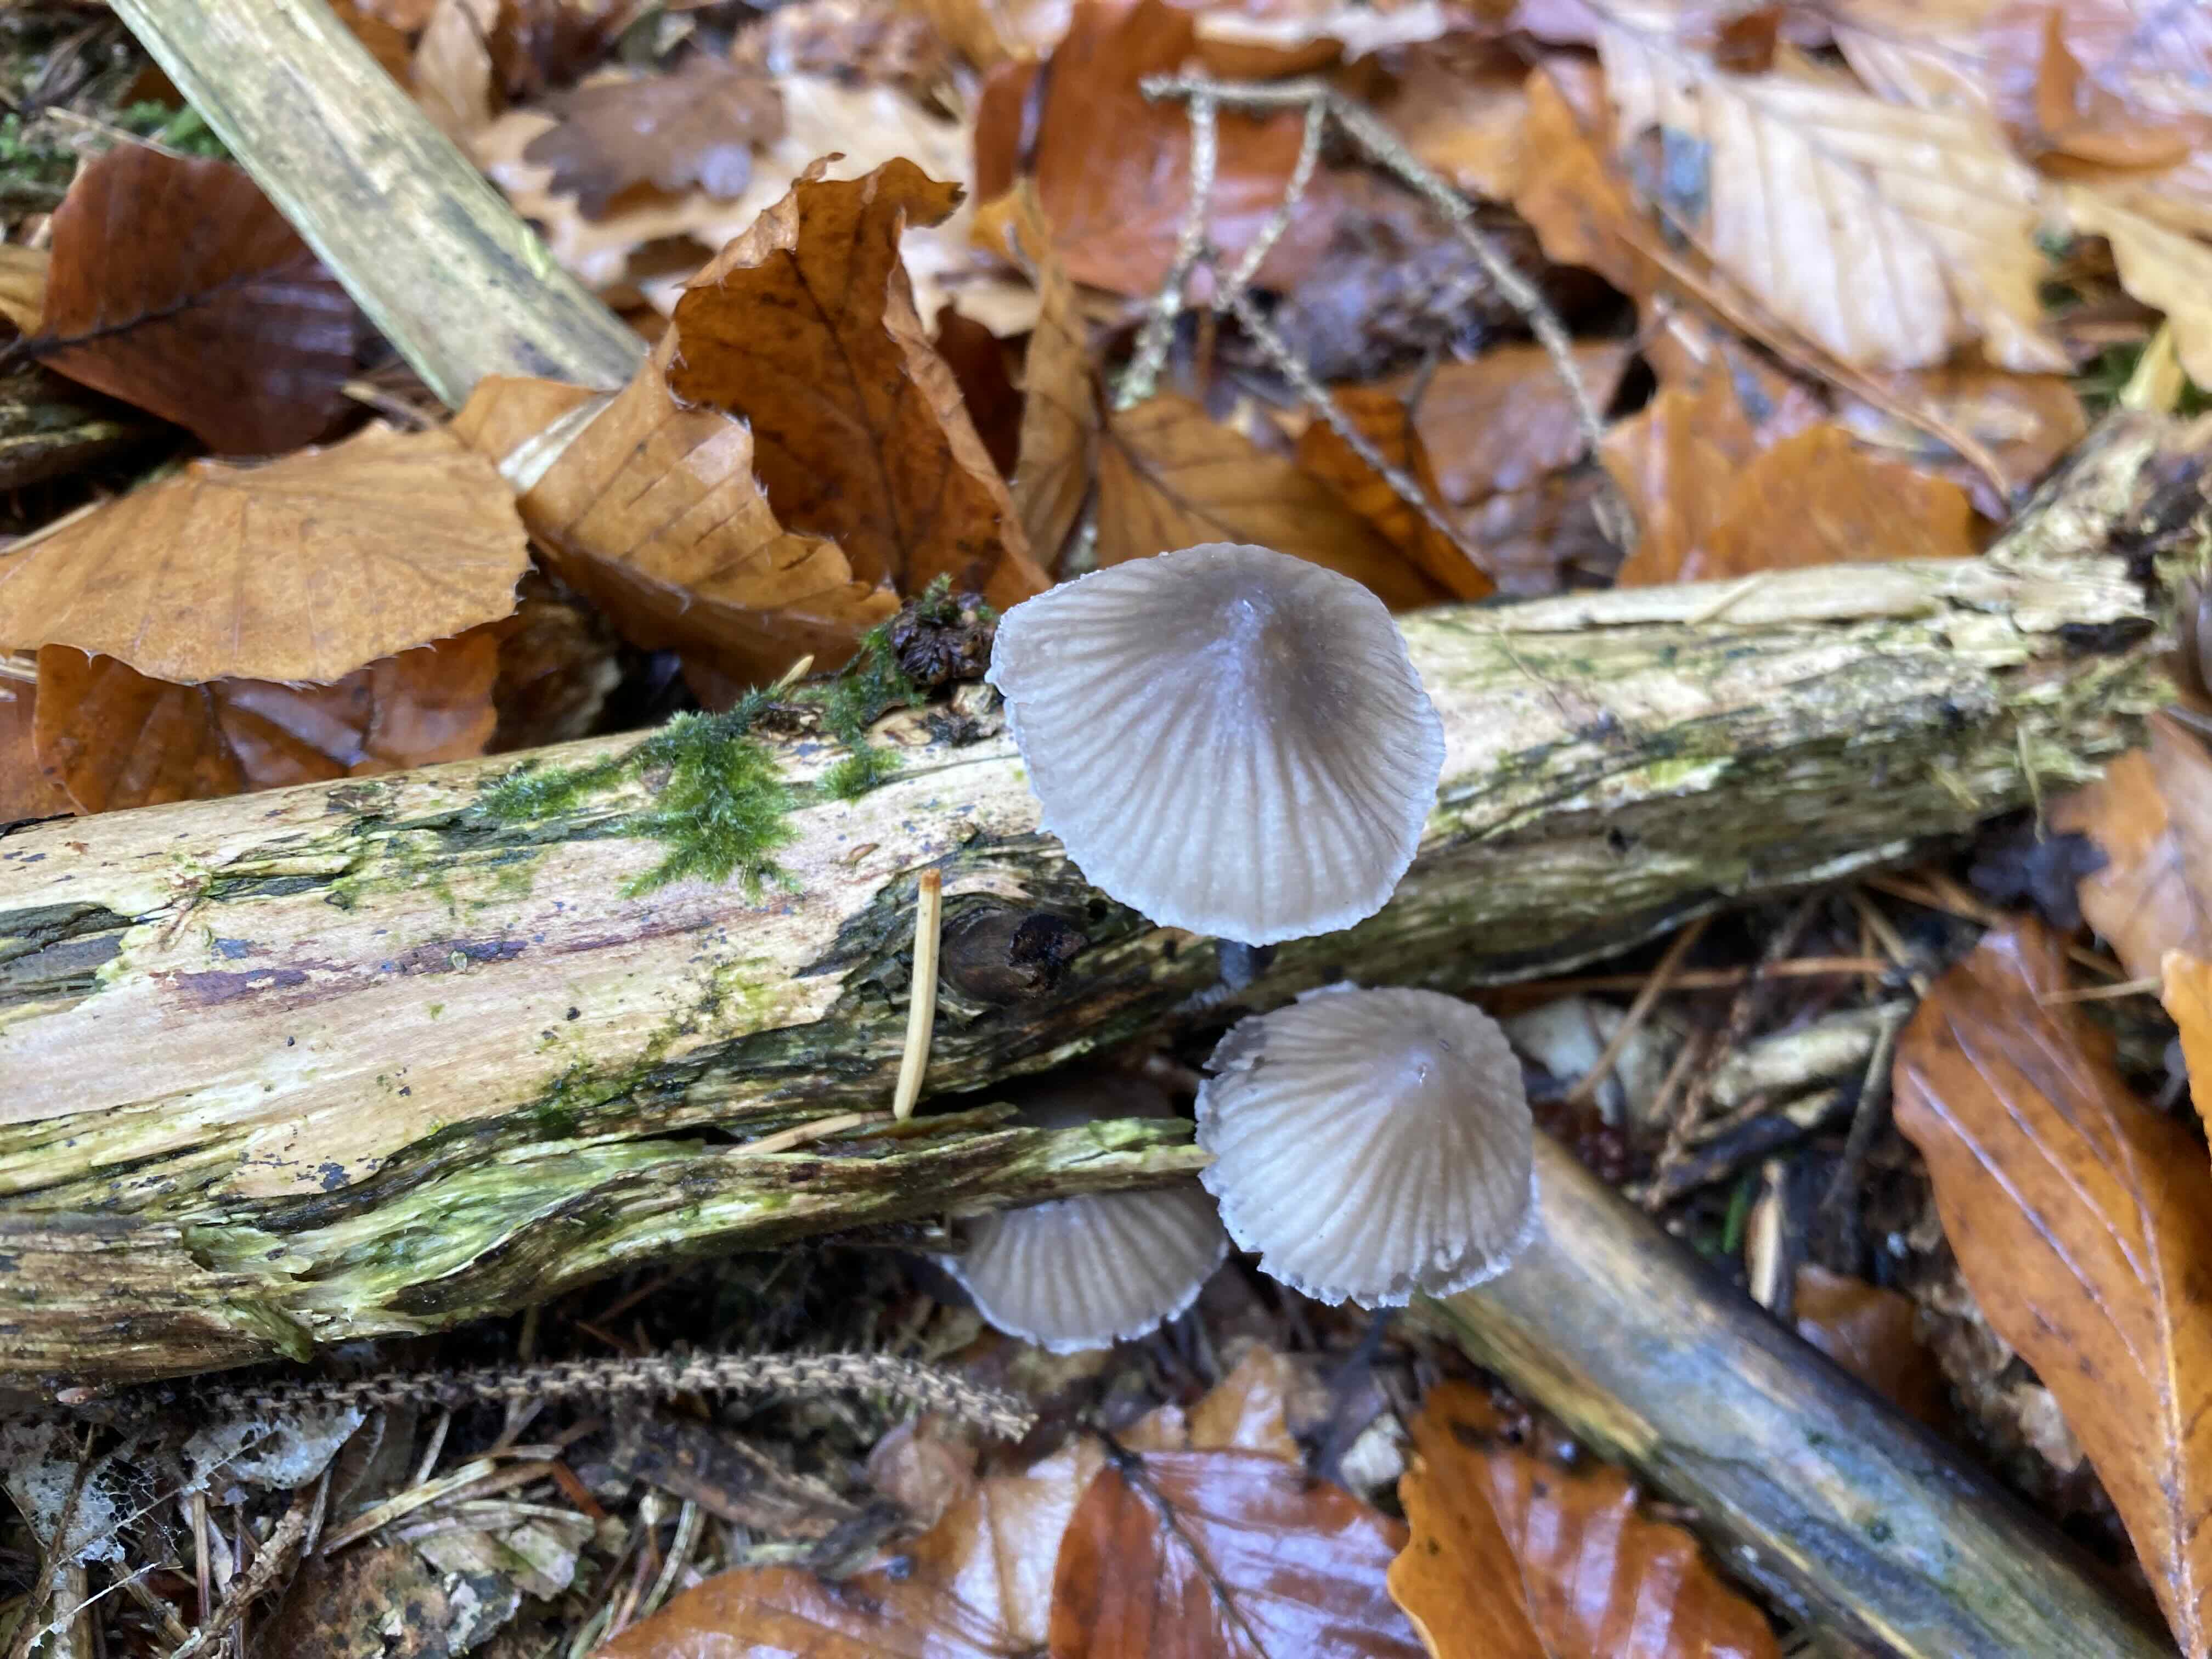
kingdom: Fungi
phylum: Basidiomycota
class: Agaricomycetes
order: Agaricales
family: Mycenaceae
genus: Mycena
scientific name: Mycena
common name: huesvamp
